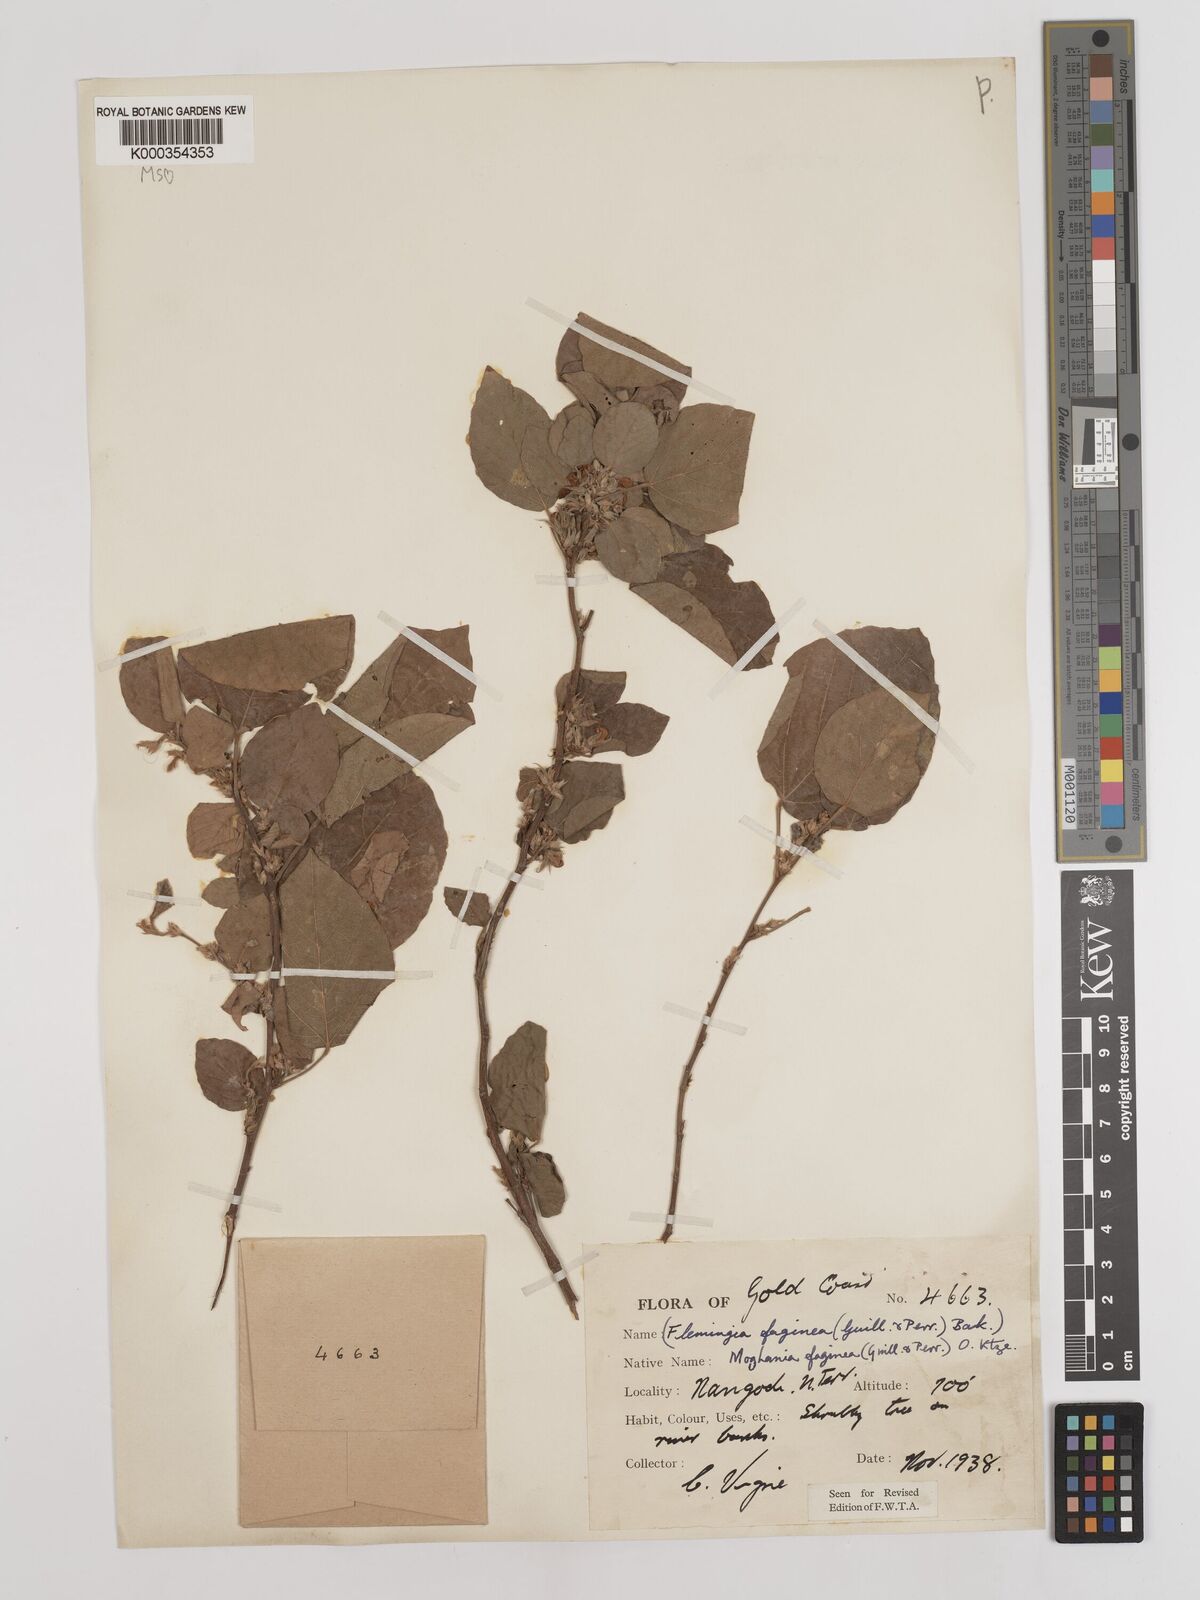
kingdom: Plantae
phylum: Tracheophyta
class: Magnoliopsida
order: Fabales
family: Fabaceae
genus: Flemingia
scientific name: Flemingia faginea
